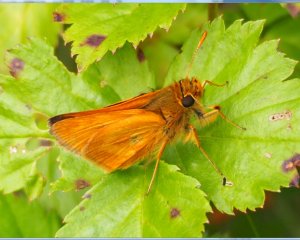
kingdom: Animalia
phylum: Arthropoda
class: Insecta
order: Lepidoptera
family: Hesperiidae
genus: Polites
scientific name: Polites
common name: Long Dash Skipper
